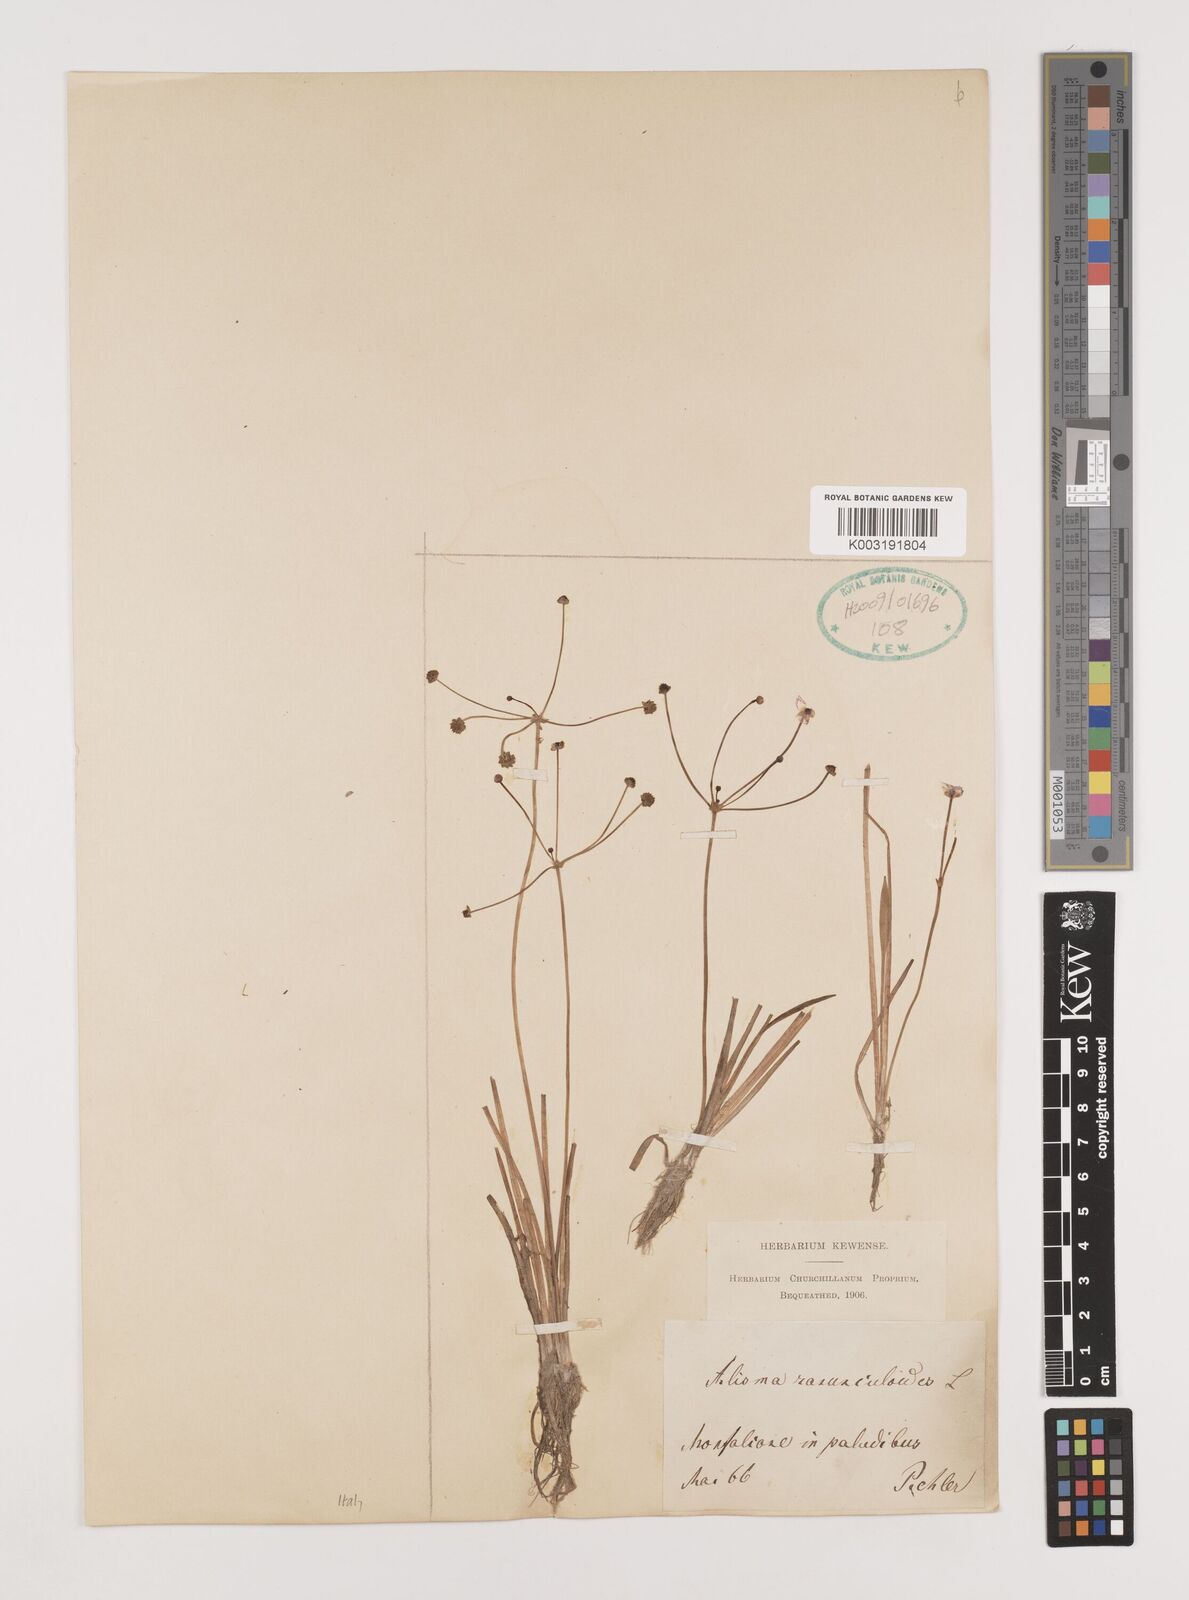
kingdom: Plantae
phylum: Tracheophyta
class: Liliopsida
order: Alismatales
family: Alismataceae
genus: Baldellia
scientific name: Baldellia ranunculoides
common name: Lesser water-plantain
